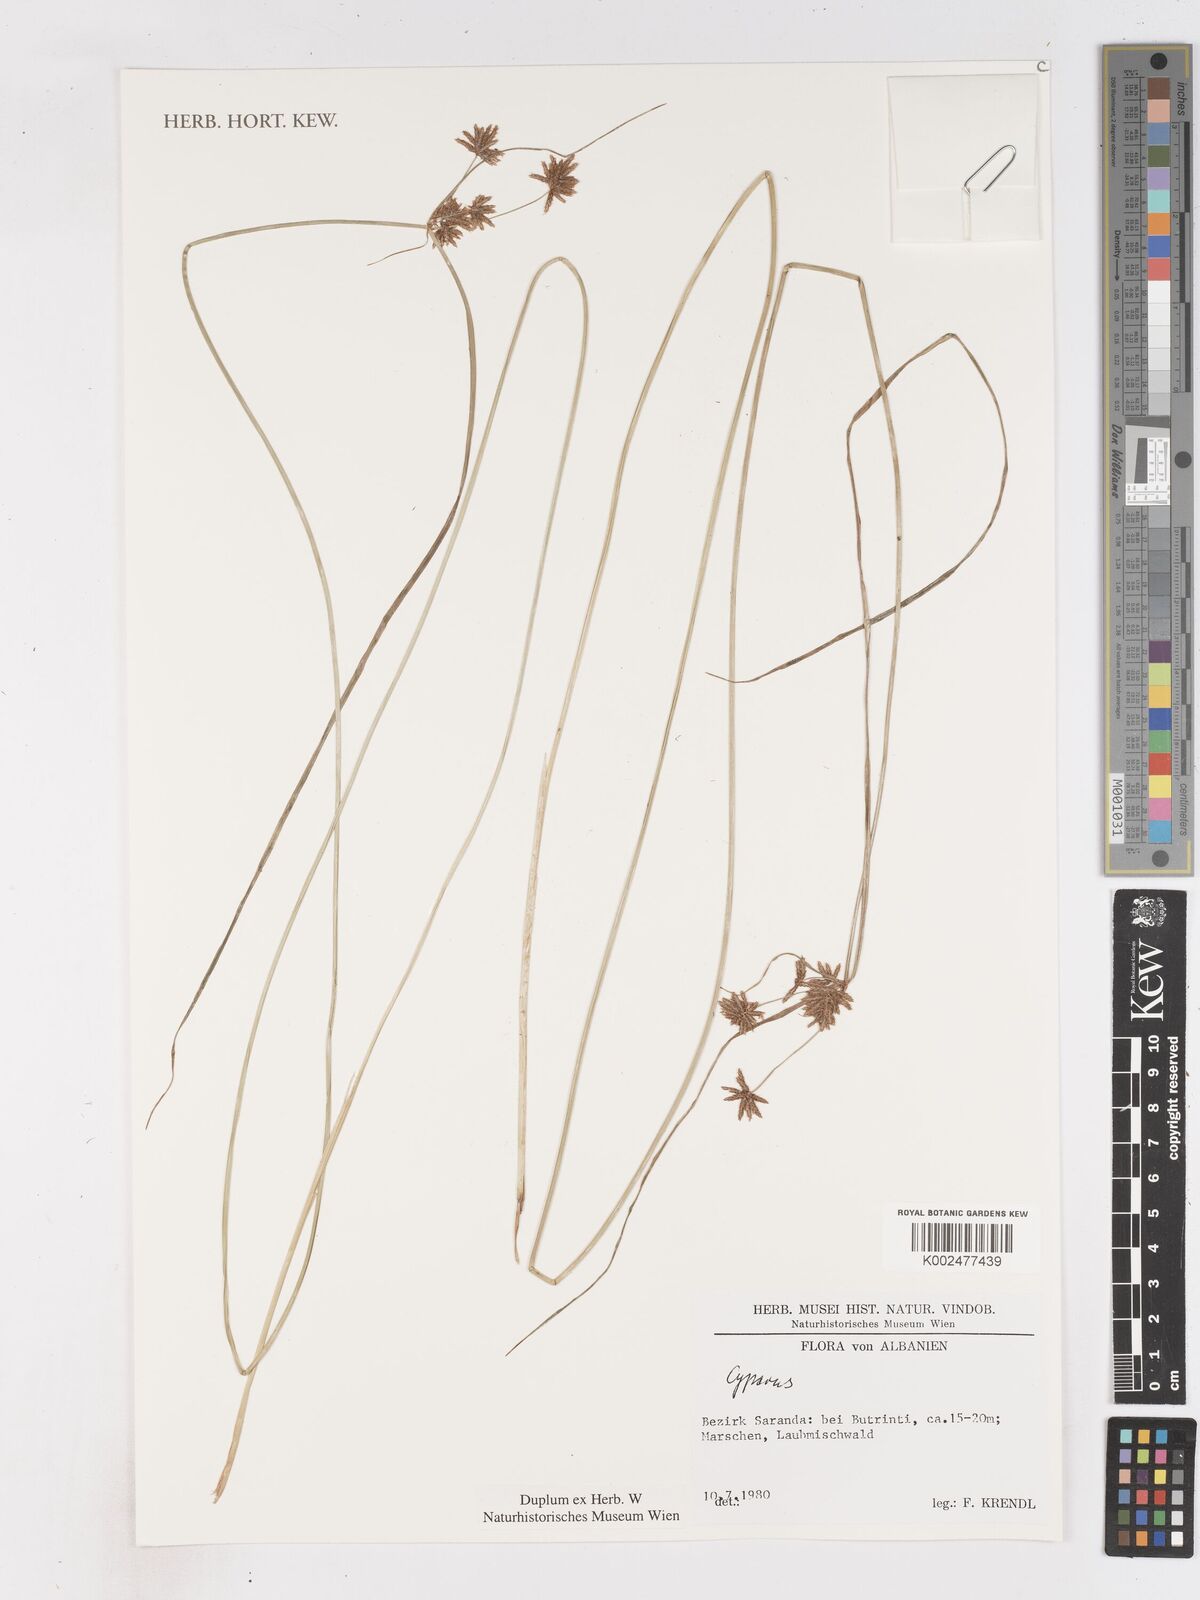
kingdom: Plantae
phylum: Tracheophyta
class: Liliopsida
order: Poales
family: Cyperaceae
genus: Cyperus
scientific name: Cyperus
